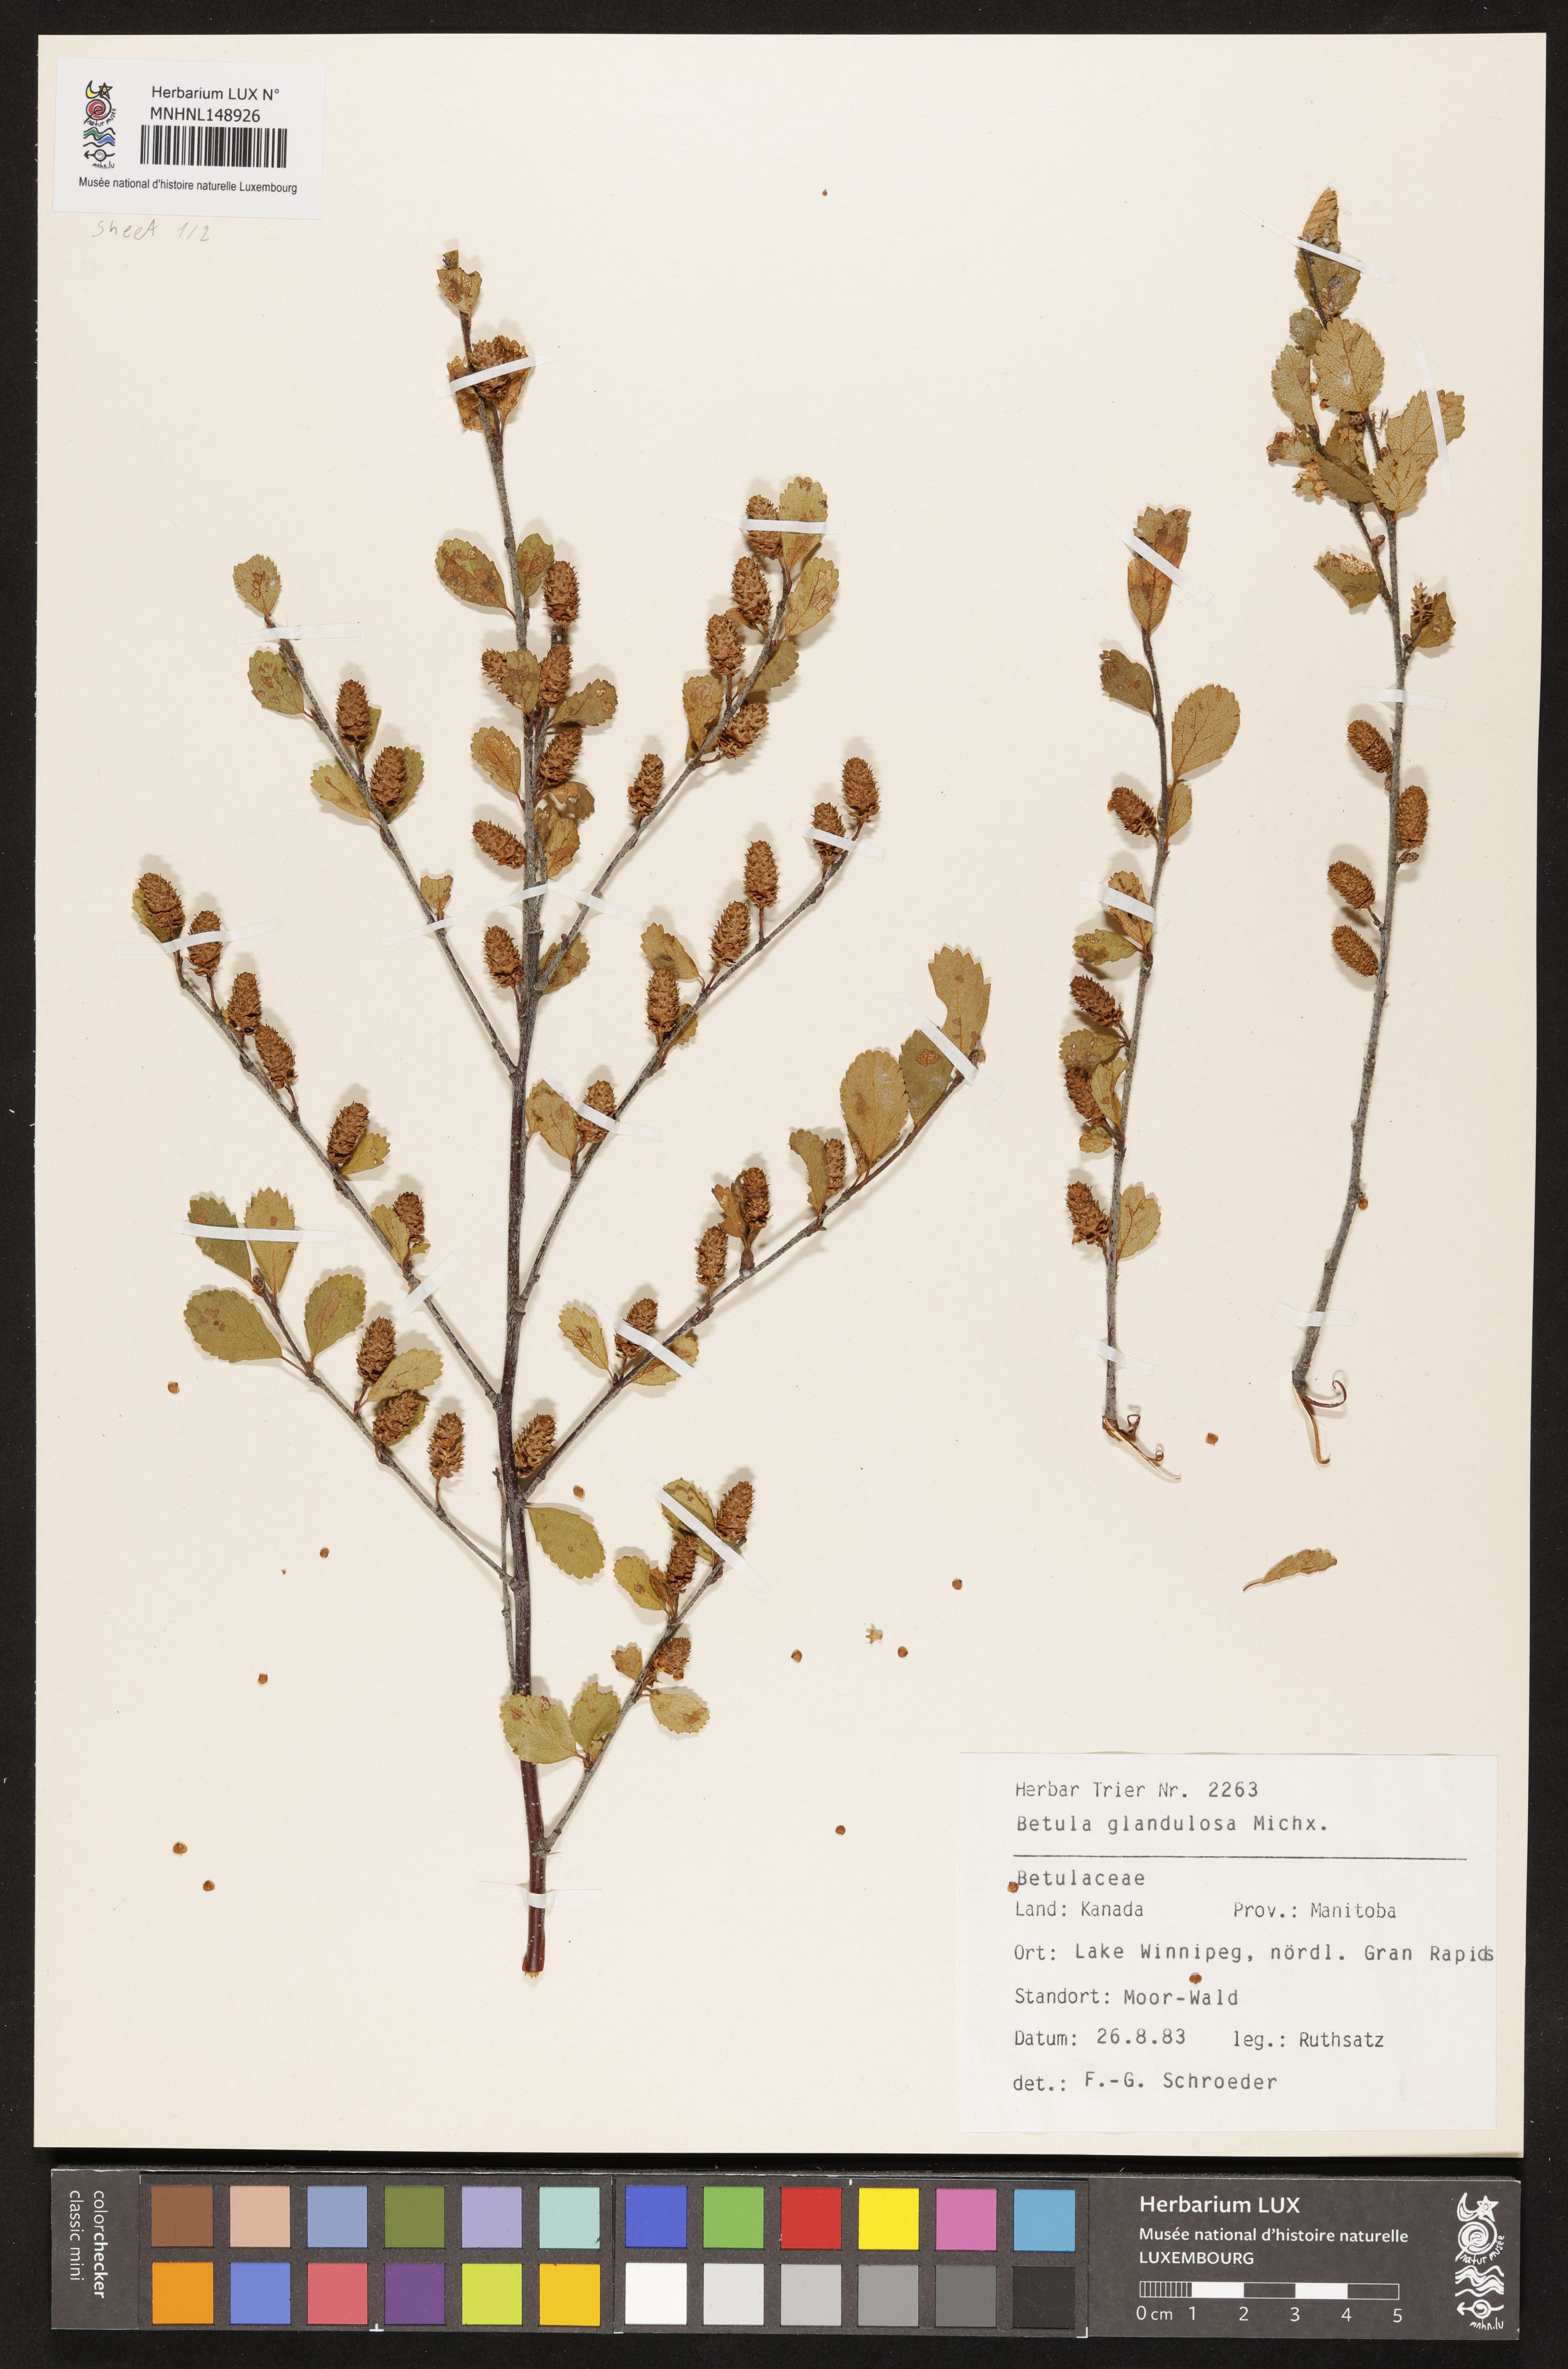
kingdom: Plantae
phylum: Tracheophyta
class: Magnoliopsida
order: Fagales
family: Betulaceae
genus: Betula
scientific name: Betula glandulosa
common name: Dwarf birch
